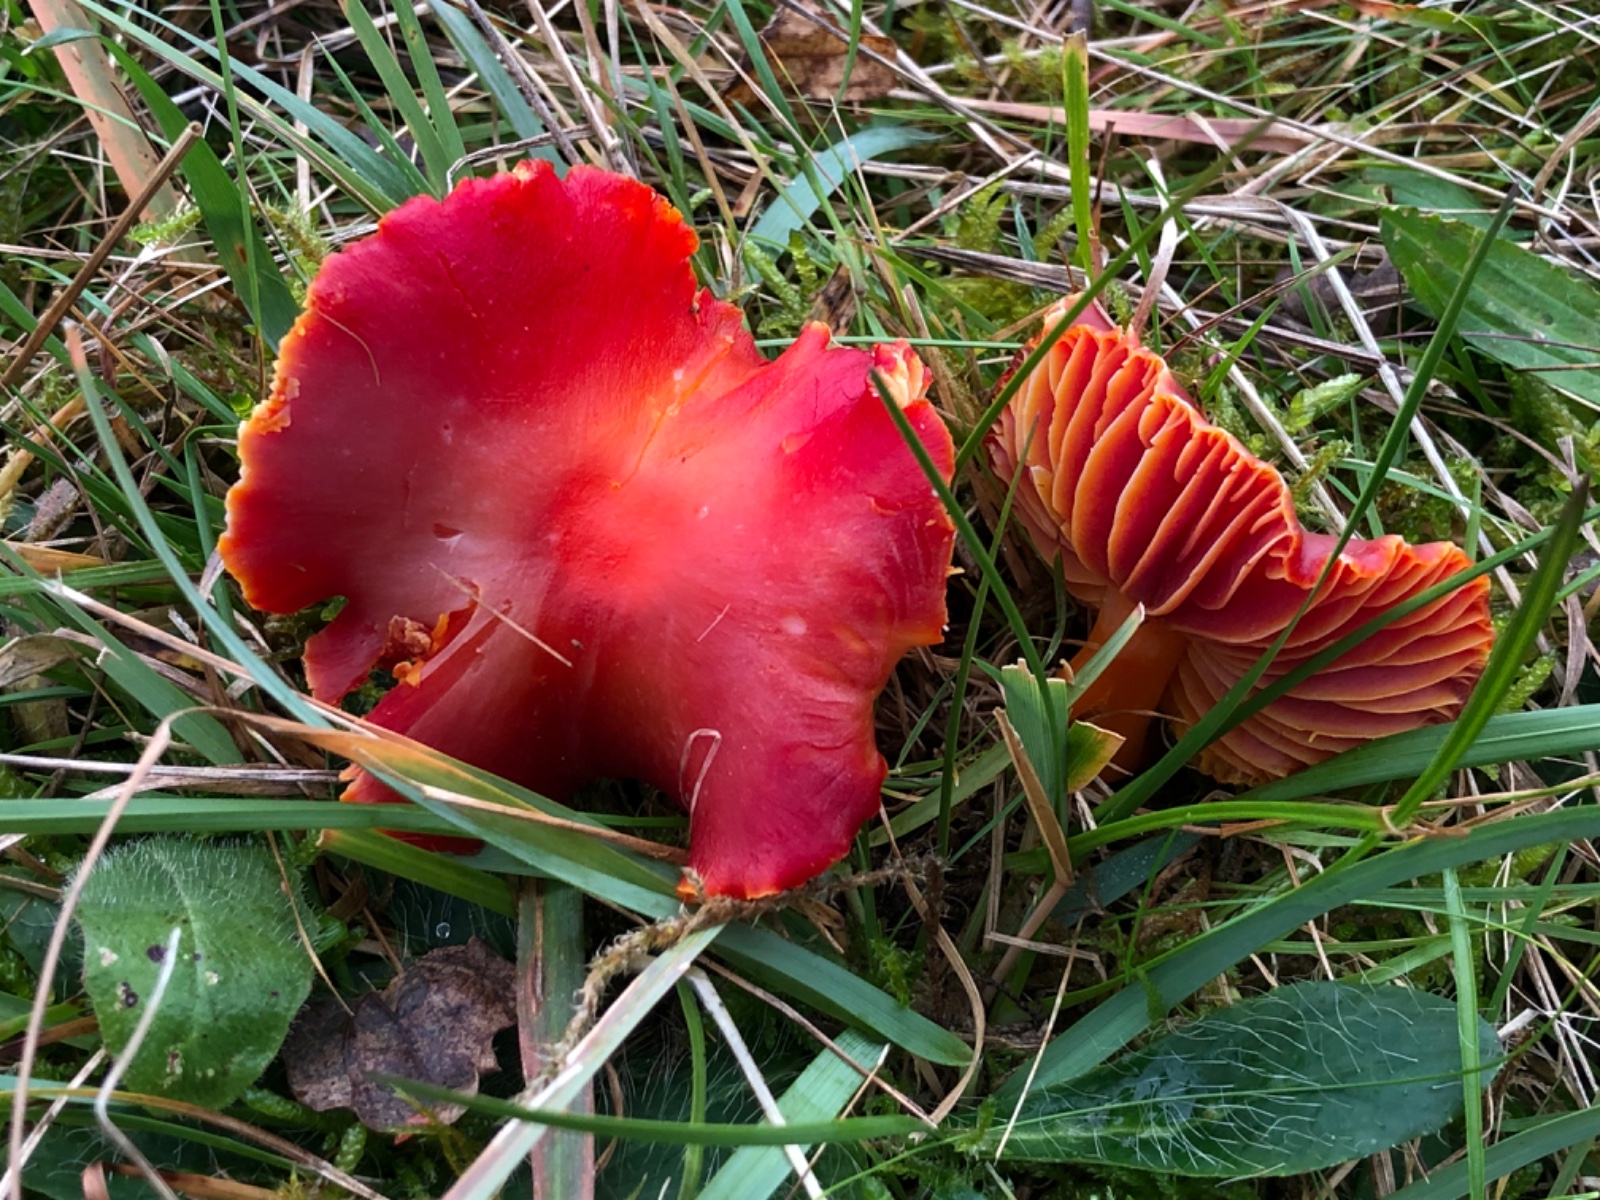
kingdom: Fungi
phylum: Basidiomycota
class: Agaricomycetes
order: Agaricales
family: Hygrophoraceae
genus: Hygrocybe
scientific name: Hygrocybe coccinea
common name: cinnober-vokshat
